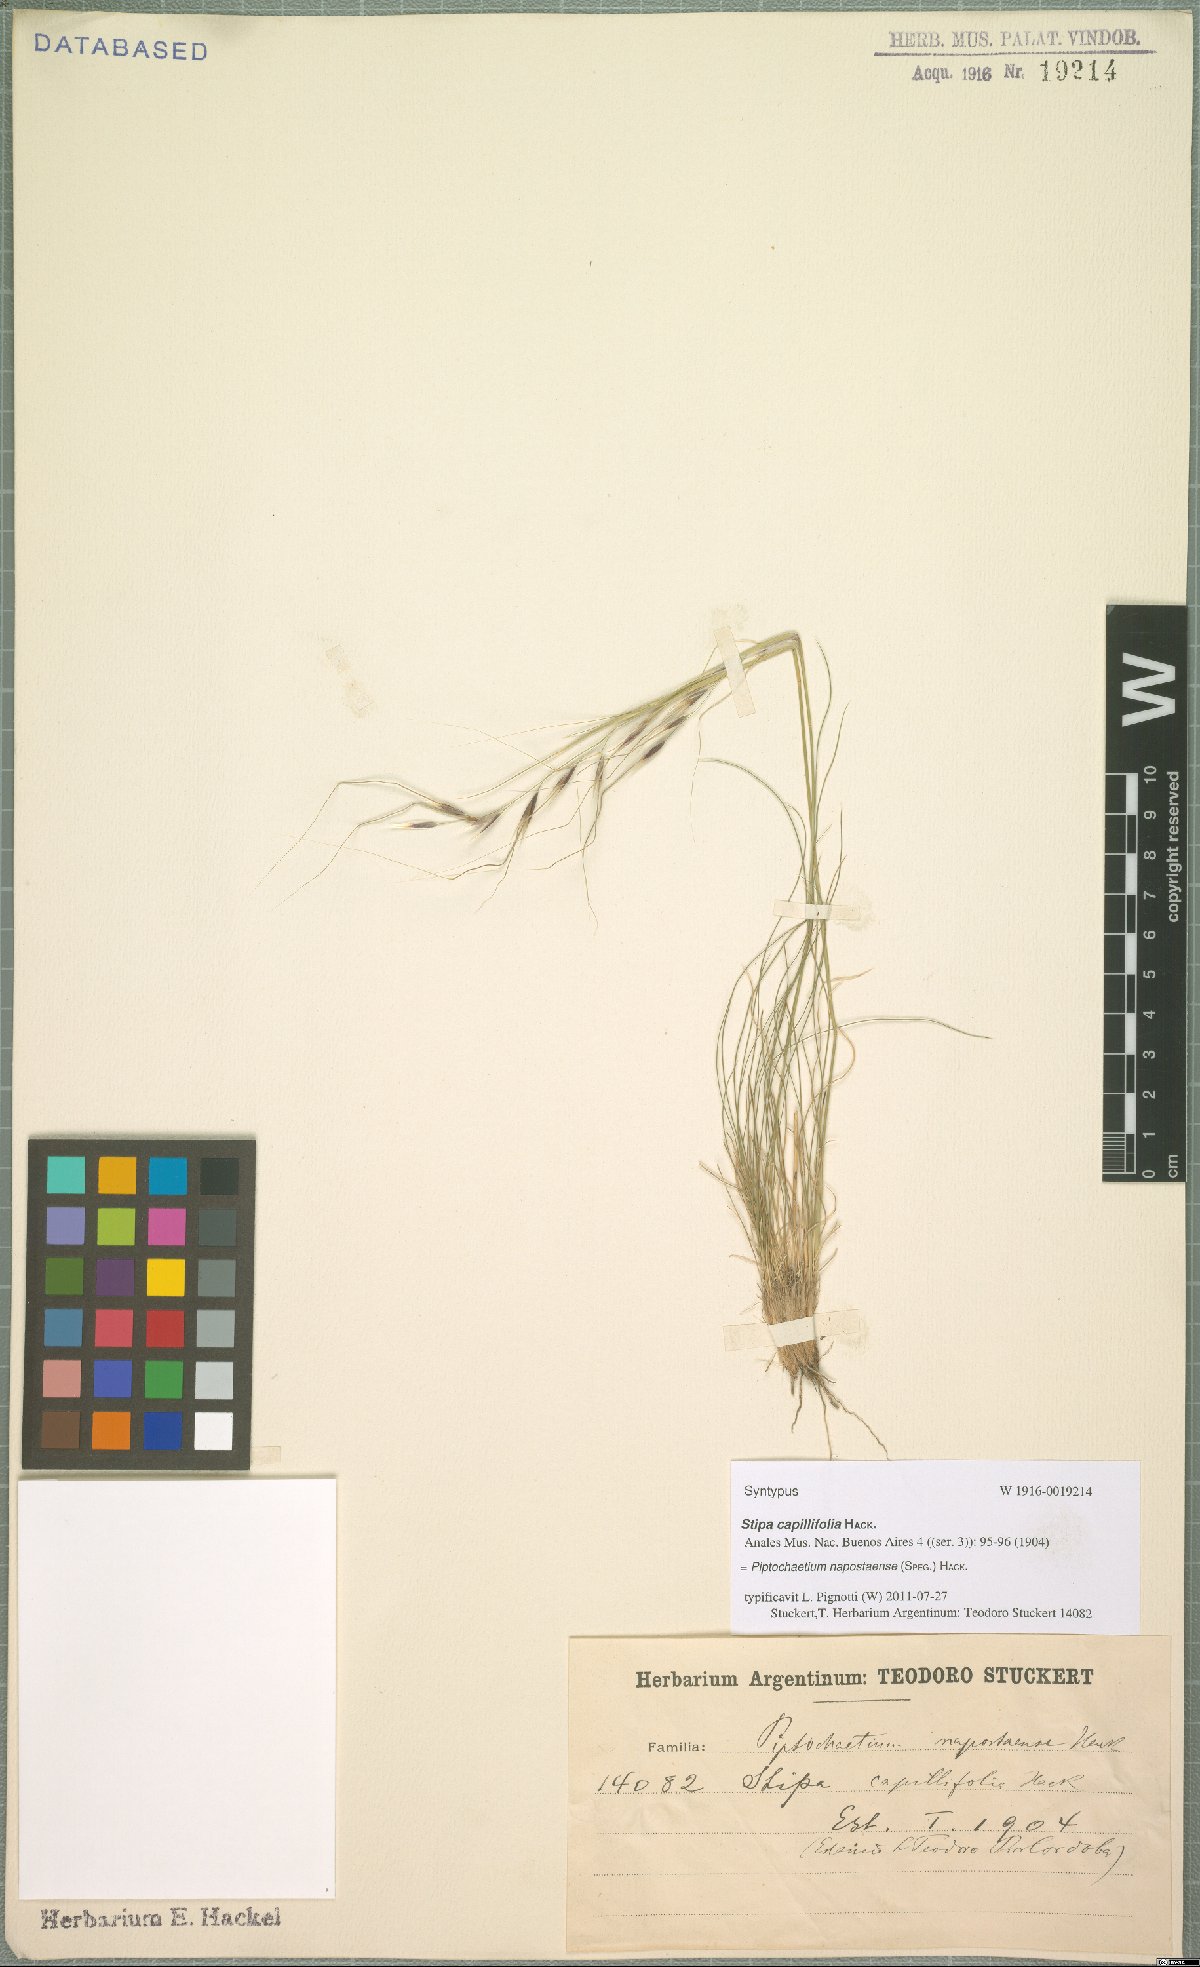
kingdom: Plantae
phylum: Tracheophyta
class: Liliopsida
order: Poales
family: Poaceae
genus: Piptochaetium
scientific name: Piptochaetium napostaense
